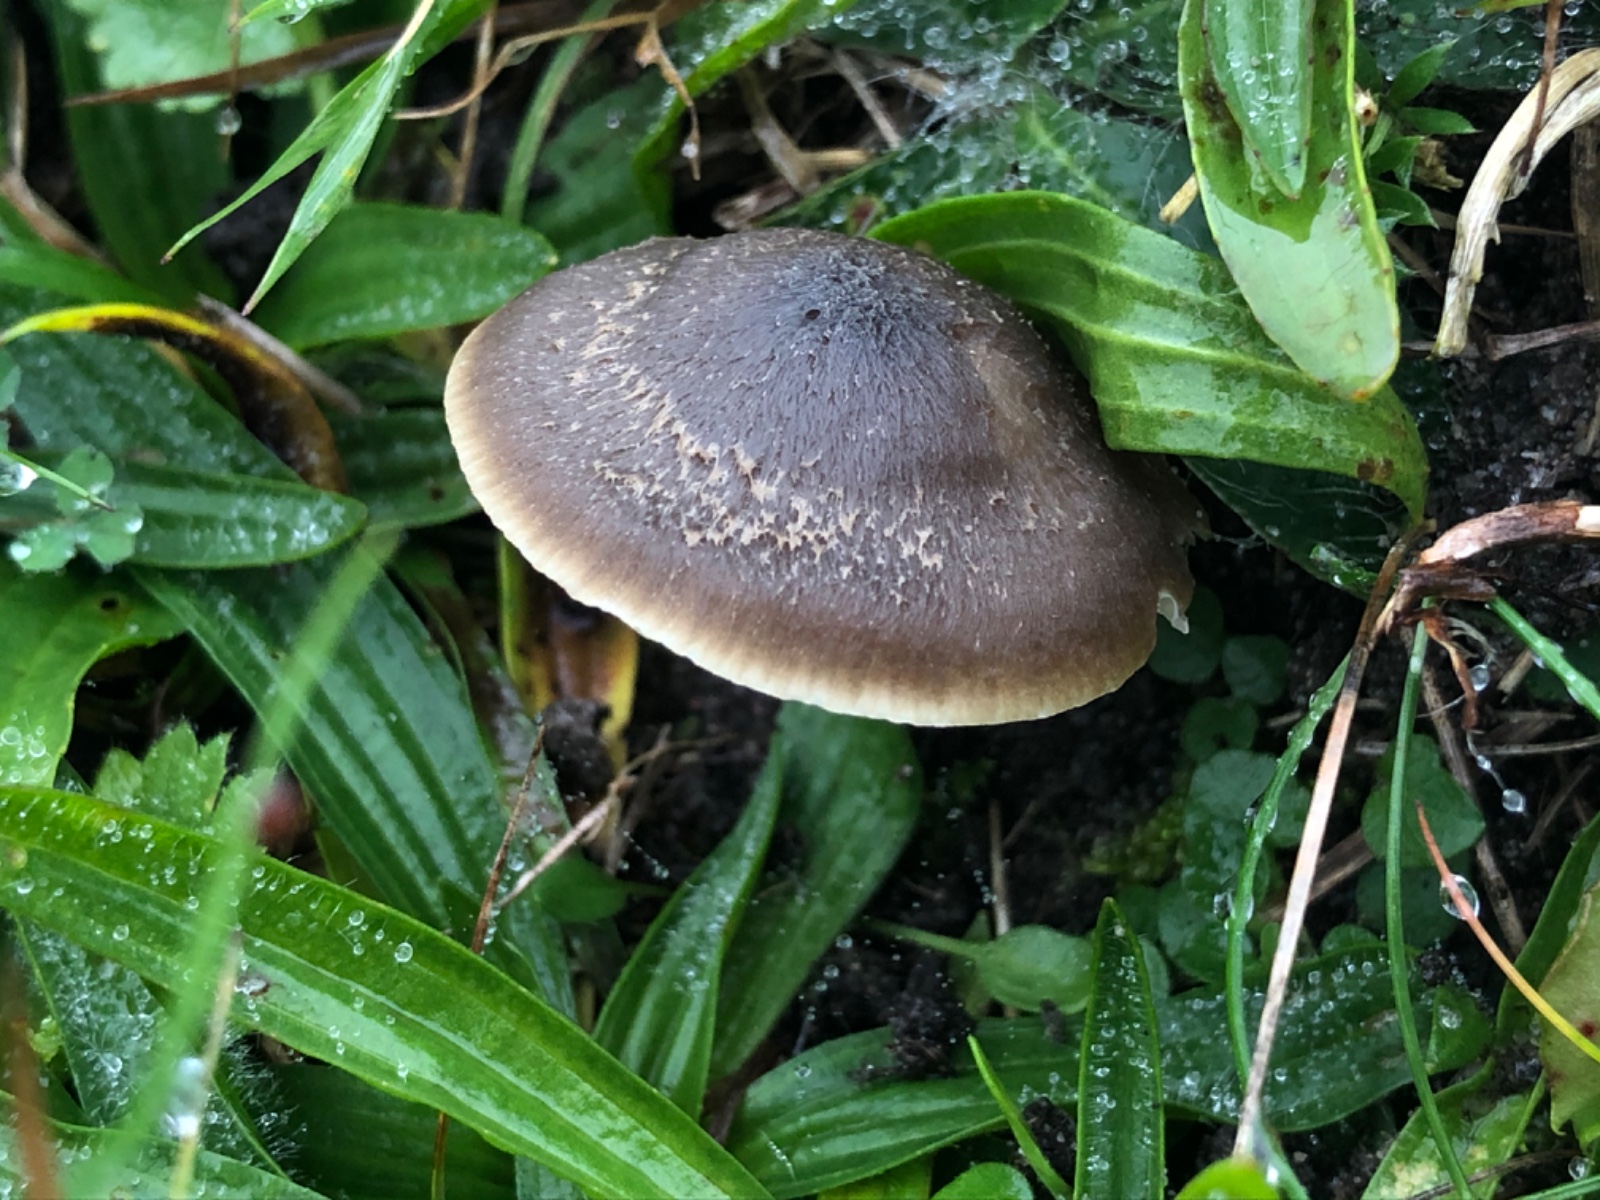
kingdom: Fungi
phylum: Basidiomycota
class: Agaricomycetes
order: Agaricales
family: Hygrophoraceae
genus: Neohygrocybe
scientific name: Neohygrocybe nitrata
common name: stinkende vokshat
